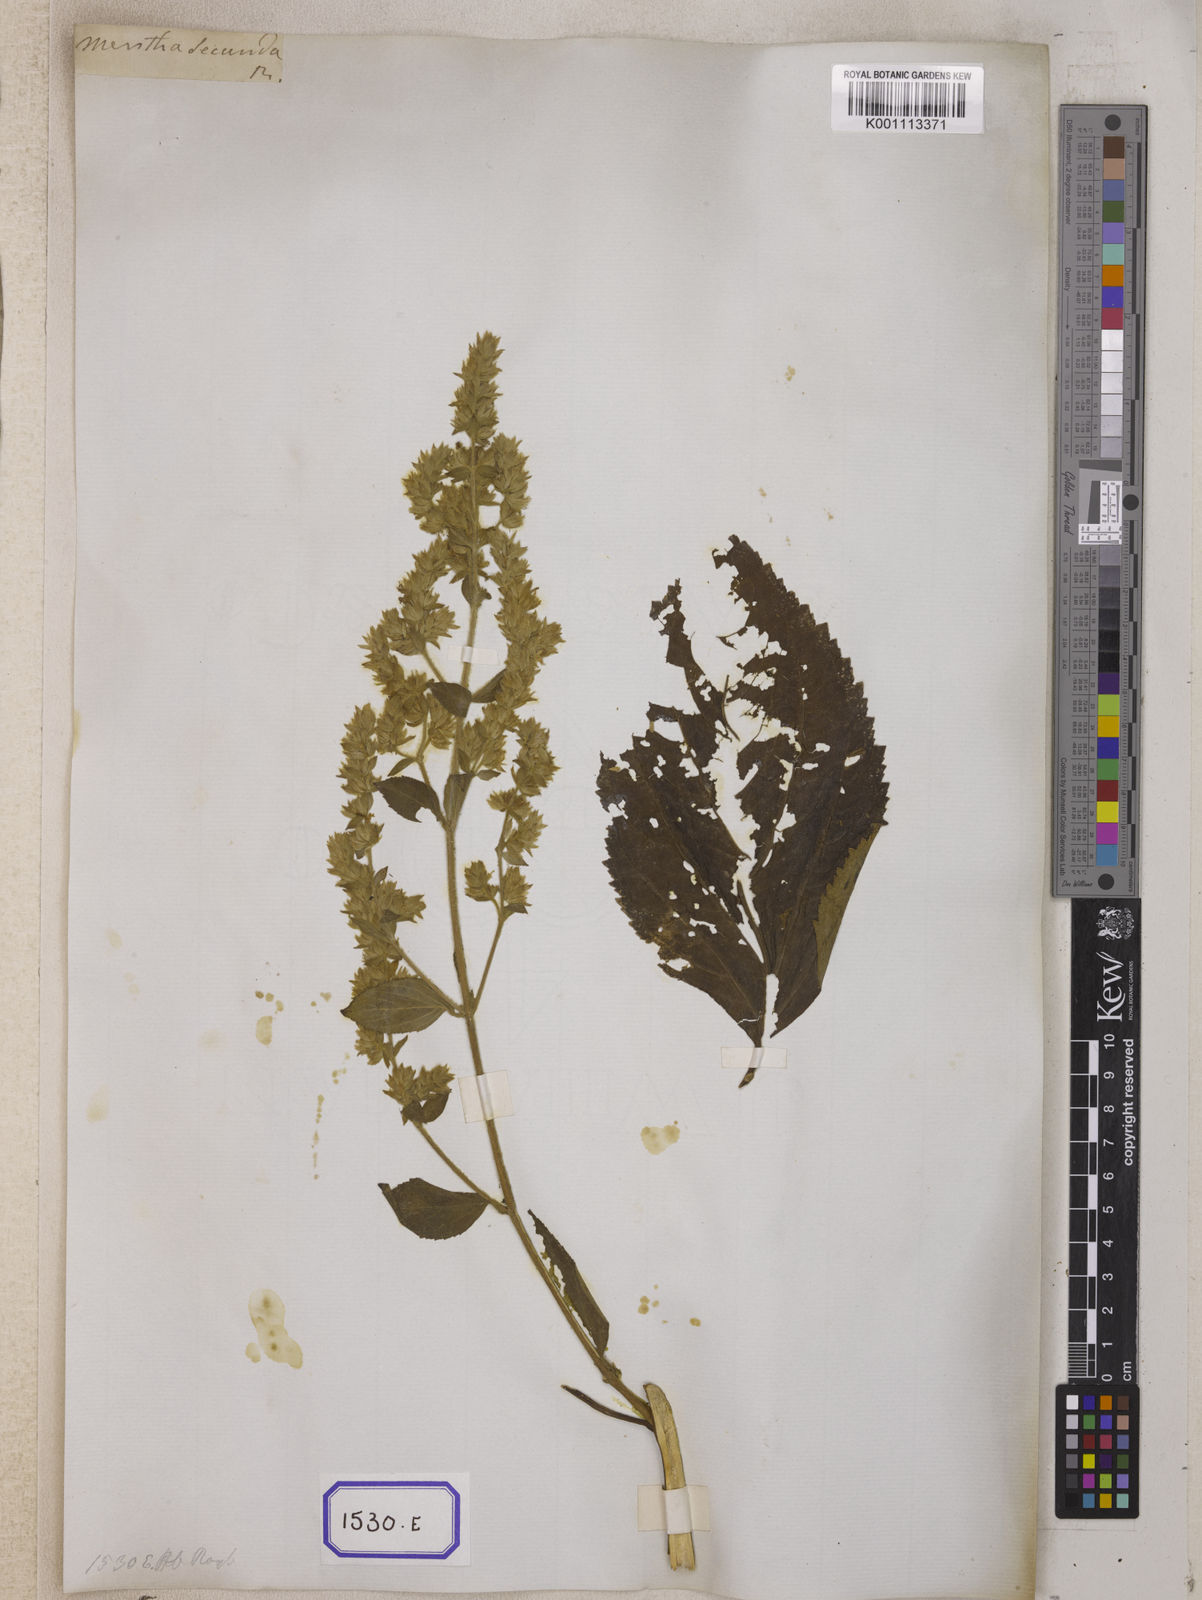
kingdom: Plantae
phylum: Tracheophyta
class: Magnoliopsida
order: Lamiales
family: Lamiaceae
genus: Pogostemon
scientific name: Pogostemon
